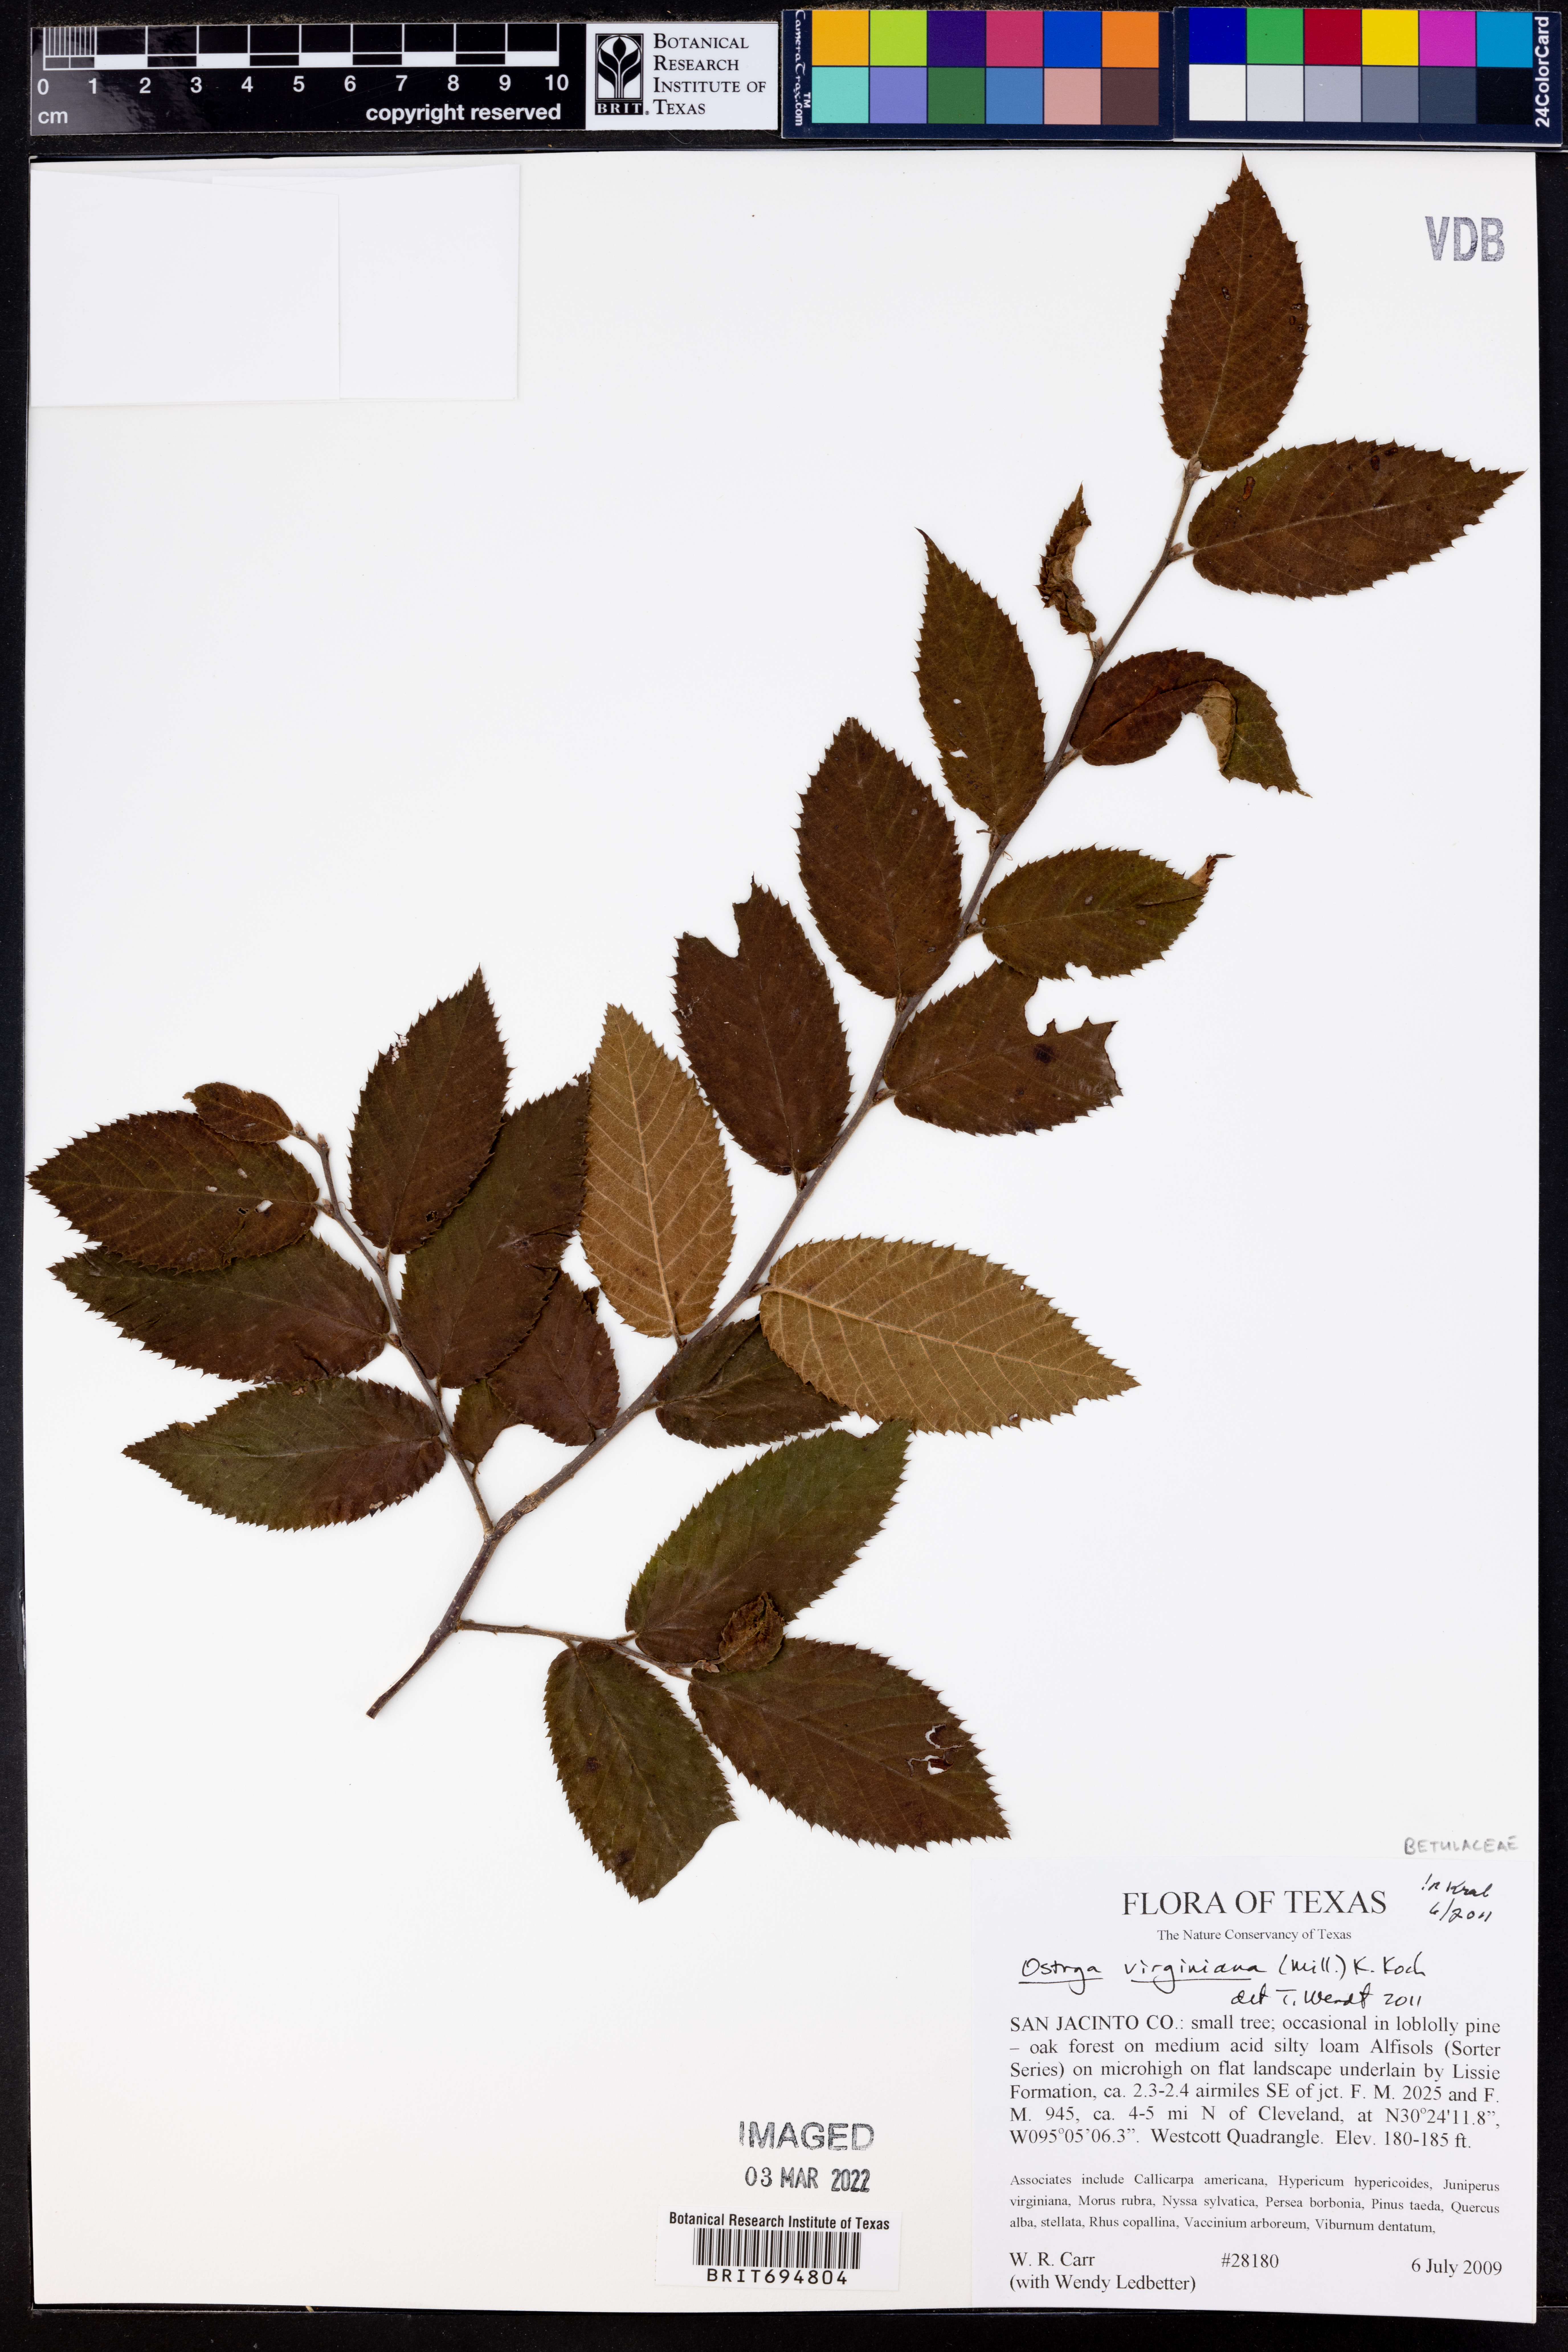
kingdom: Plantae
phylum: Tracheophyta
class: Magnoliopsida
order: Fagales
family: Betulaceae
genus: Ostrya
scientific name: Ostrya virginiana
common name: Ironwood
